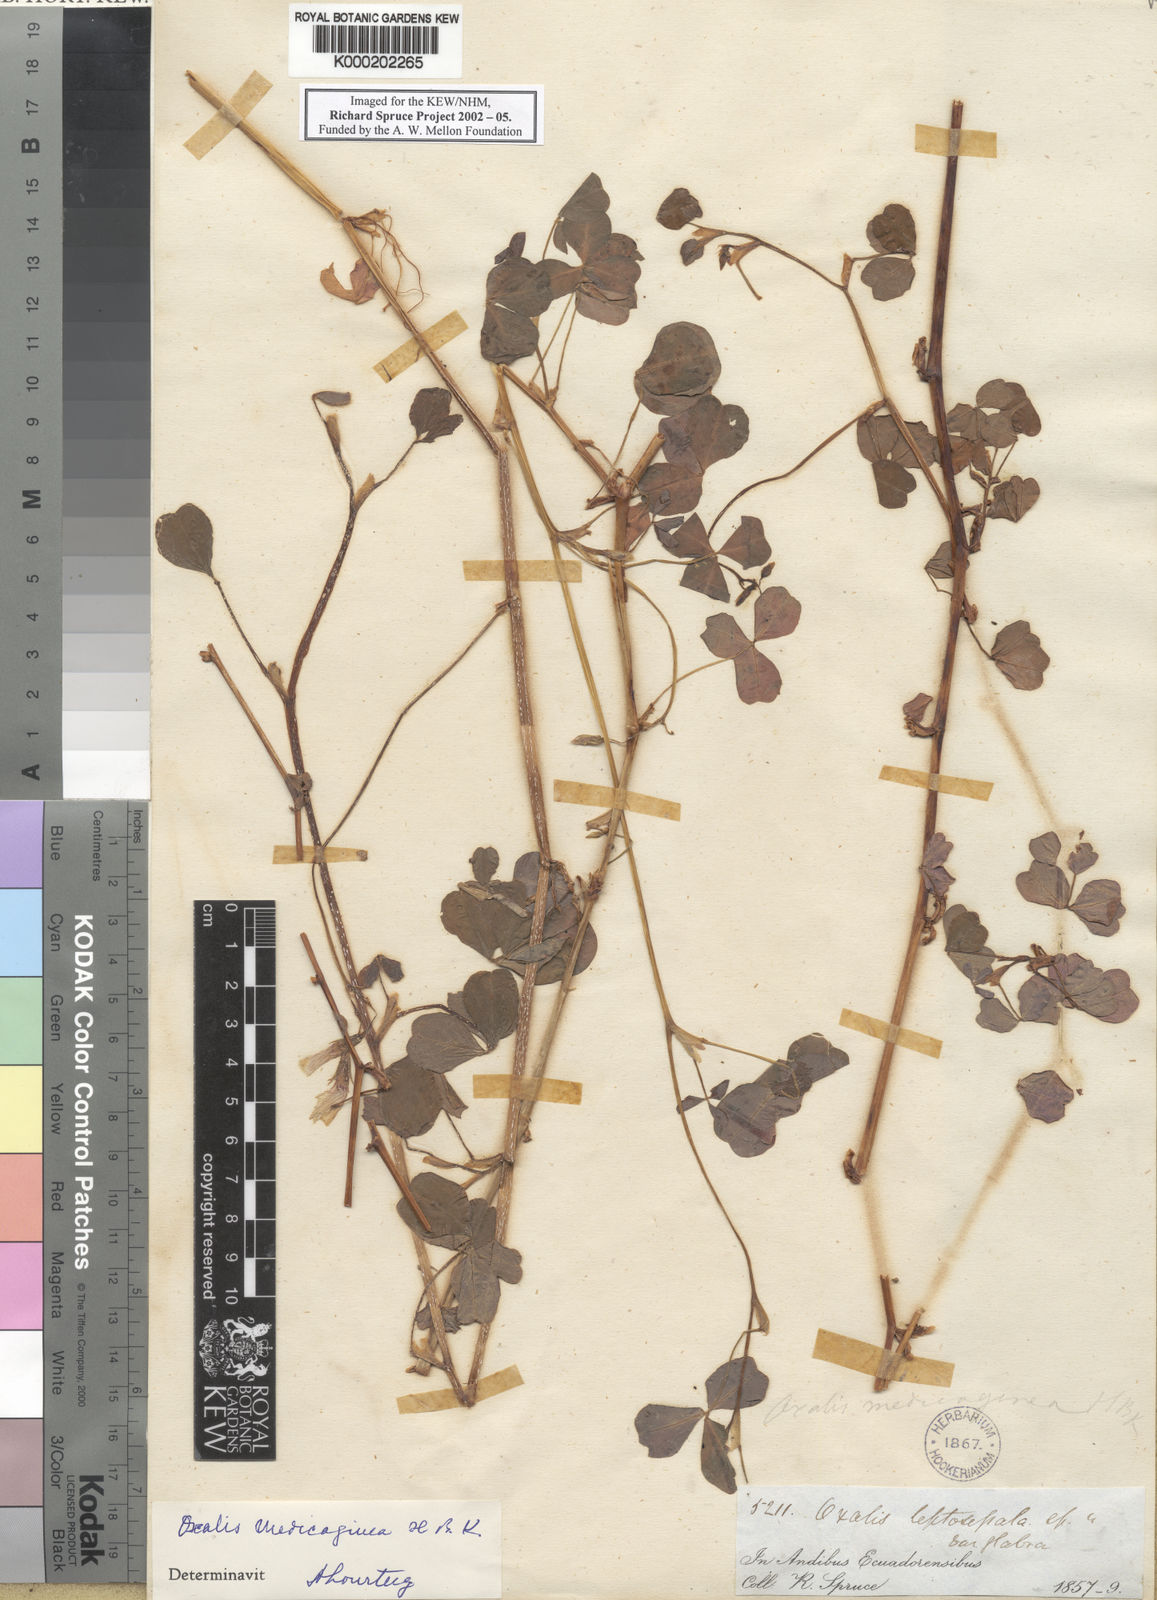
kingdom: Plantae
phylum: Tracheophyta
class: Magnoliopsida
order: Oxalidales
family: Oxalidaceae
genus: Oxalis
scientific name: Oxalis lotoides
